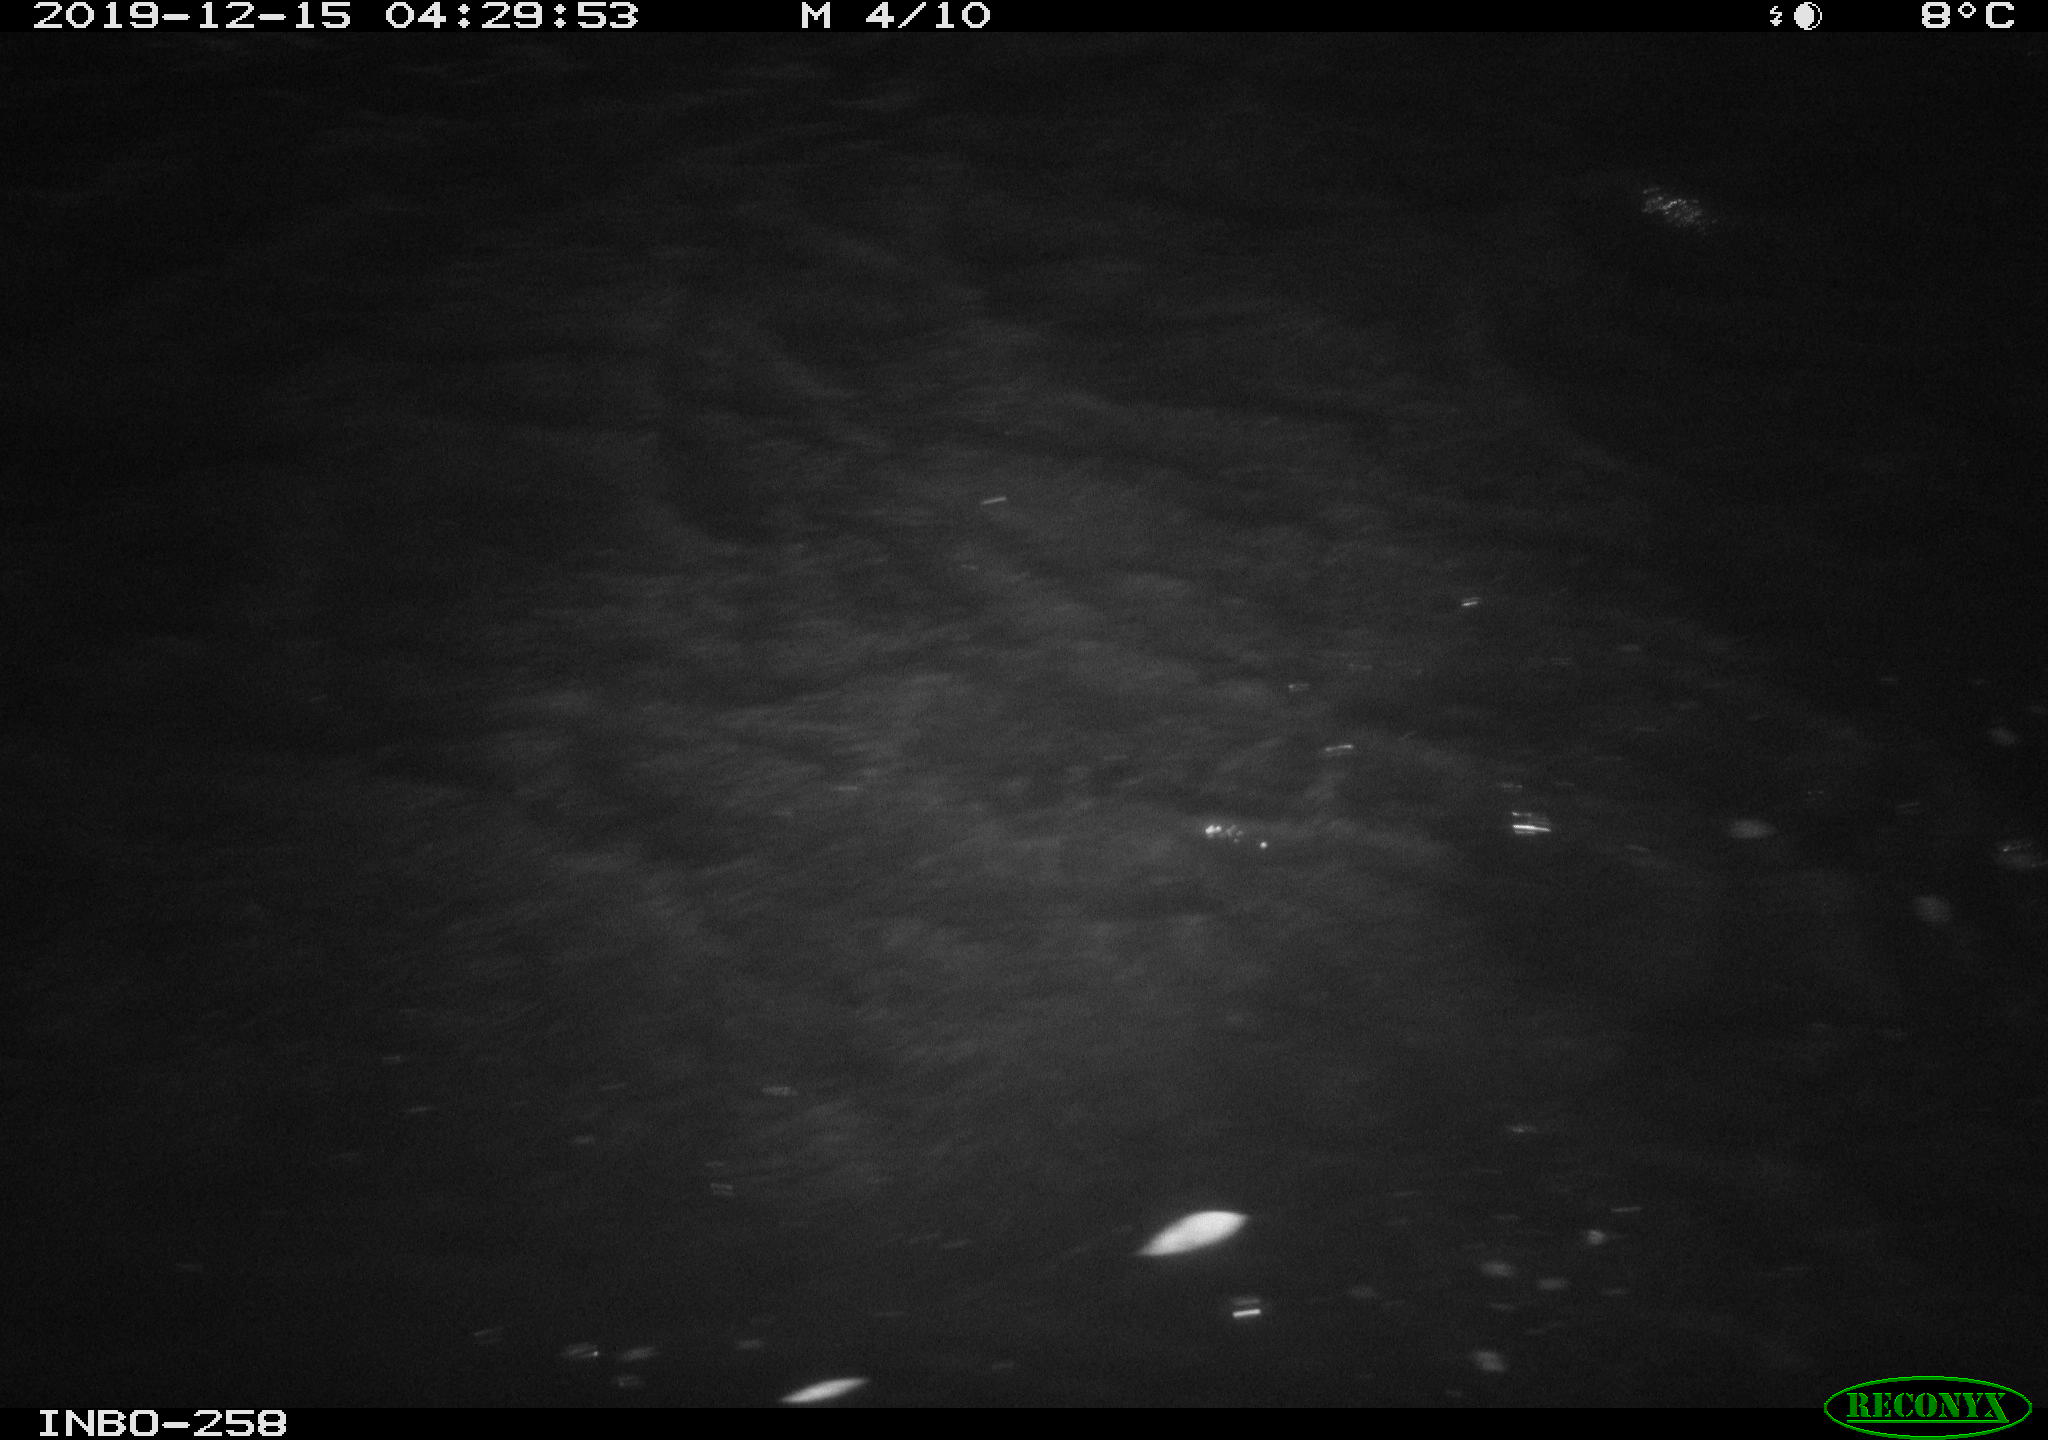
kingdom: Animalia
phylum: Chordata
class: Aves
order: Anseriformes
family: Anatidae
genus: Anas
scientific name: Anas platyrhynchos
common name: Mallard
